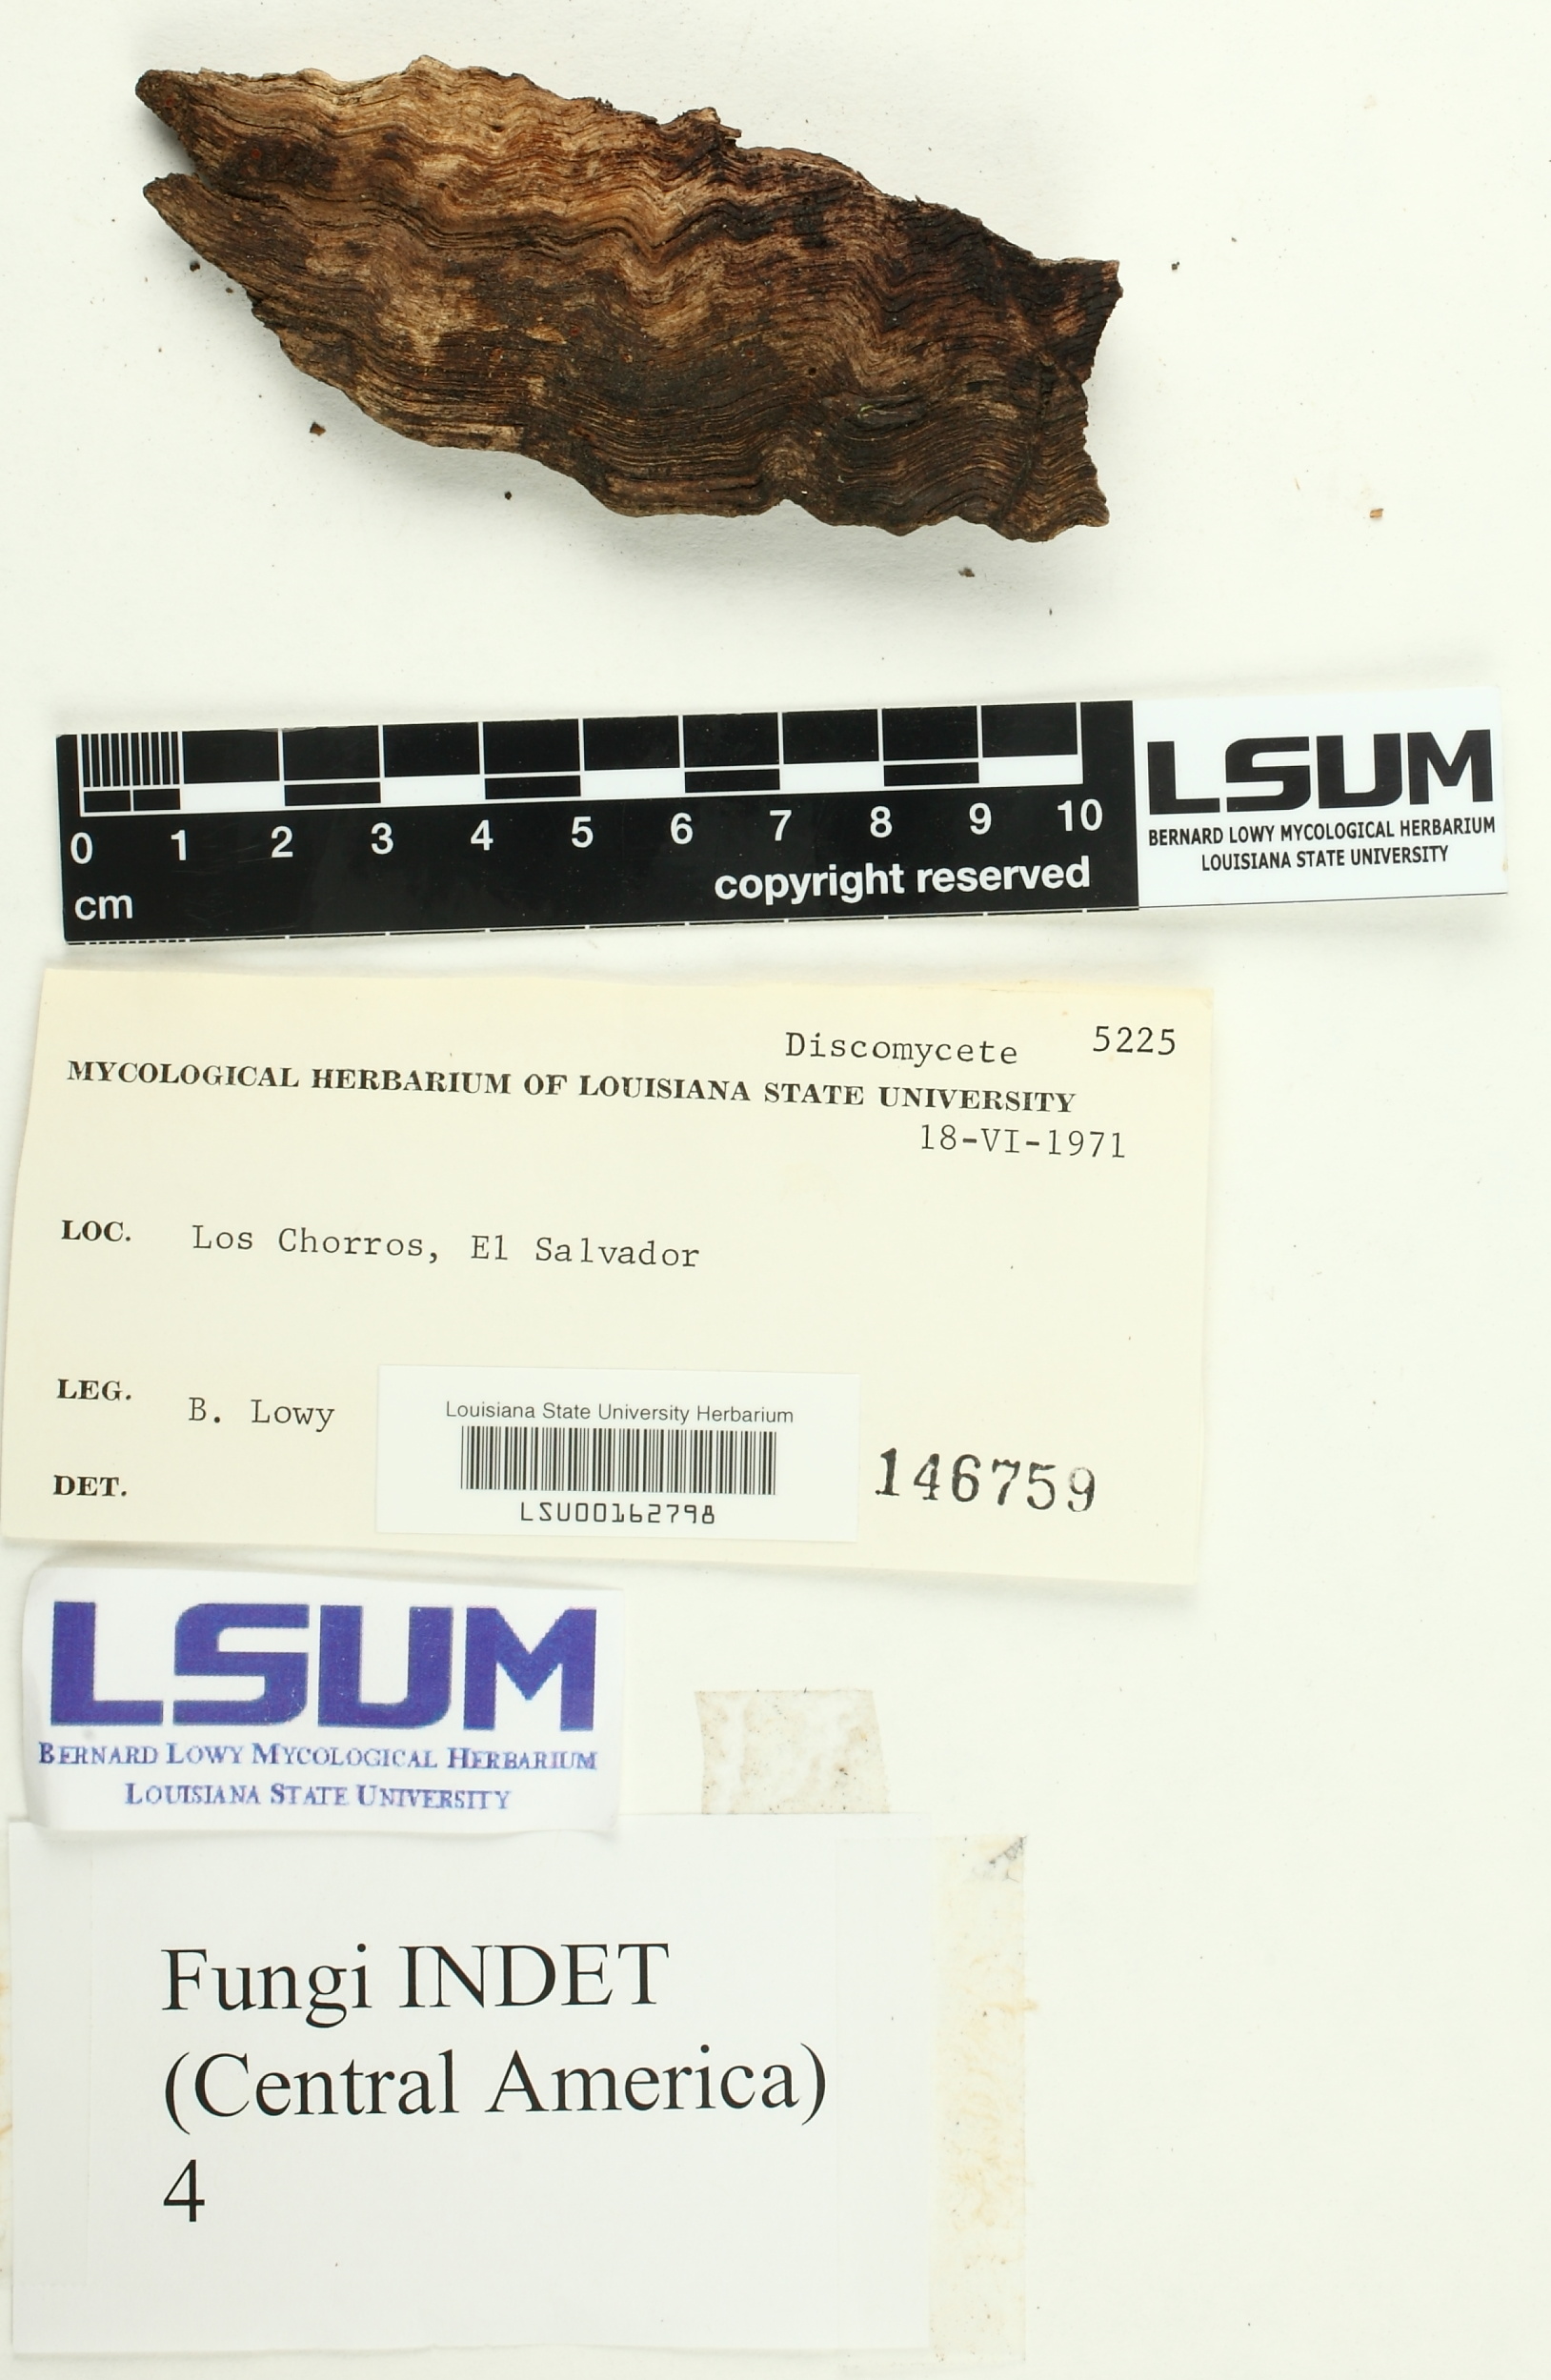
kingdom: Fungi
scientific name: Fungi
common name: Fungi
